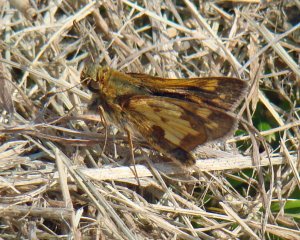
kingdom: Animalia
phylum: Arthropoda
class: Insecta
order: Lepidoptera
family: Hesperiidae
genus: Polites
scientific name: Polites coras
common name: Peck's Skipper
